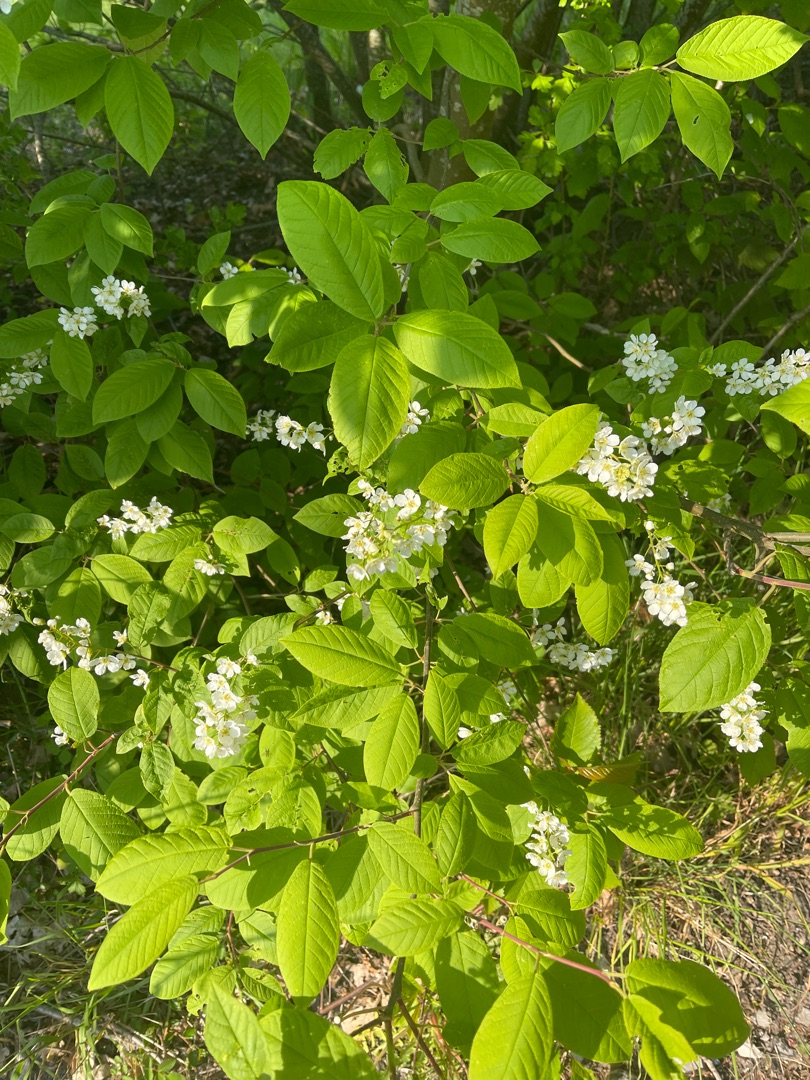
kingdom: Plantae
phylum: Tracheophyta
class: Magnoliopsida
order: Rosales
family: Rosaceae
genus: Prunus
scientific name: Prunus padus
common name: Almindelig hæg
